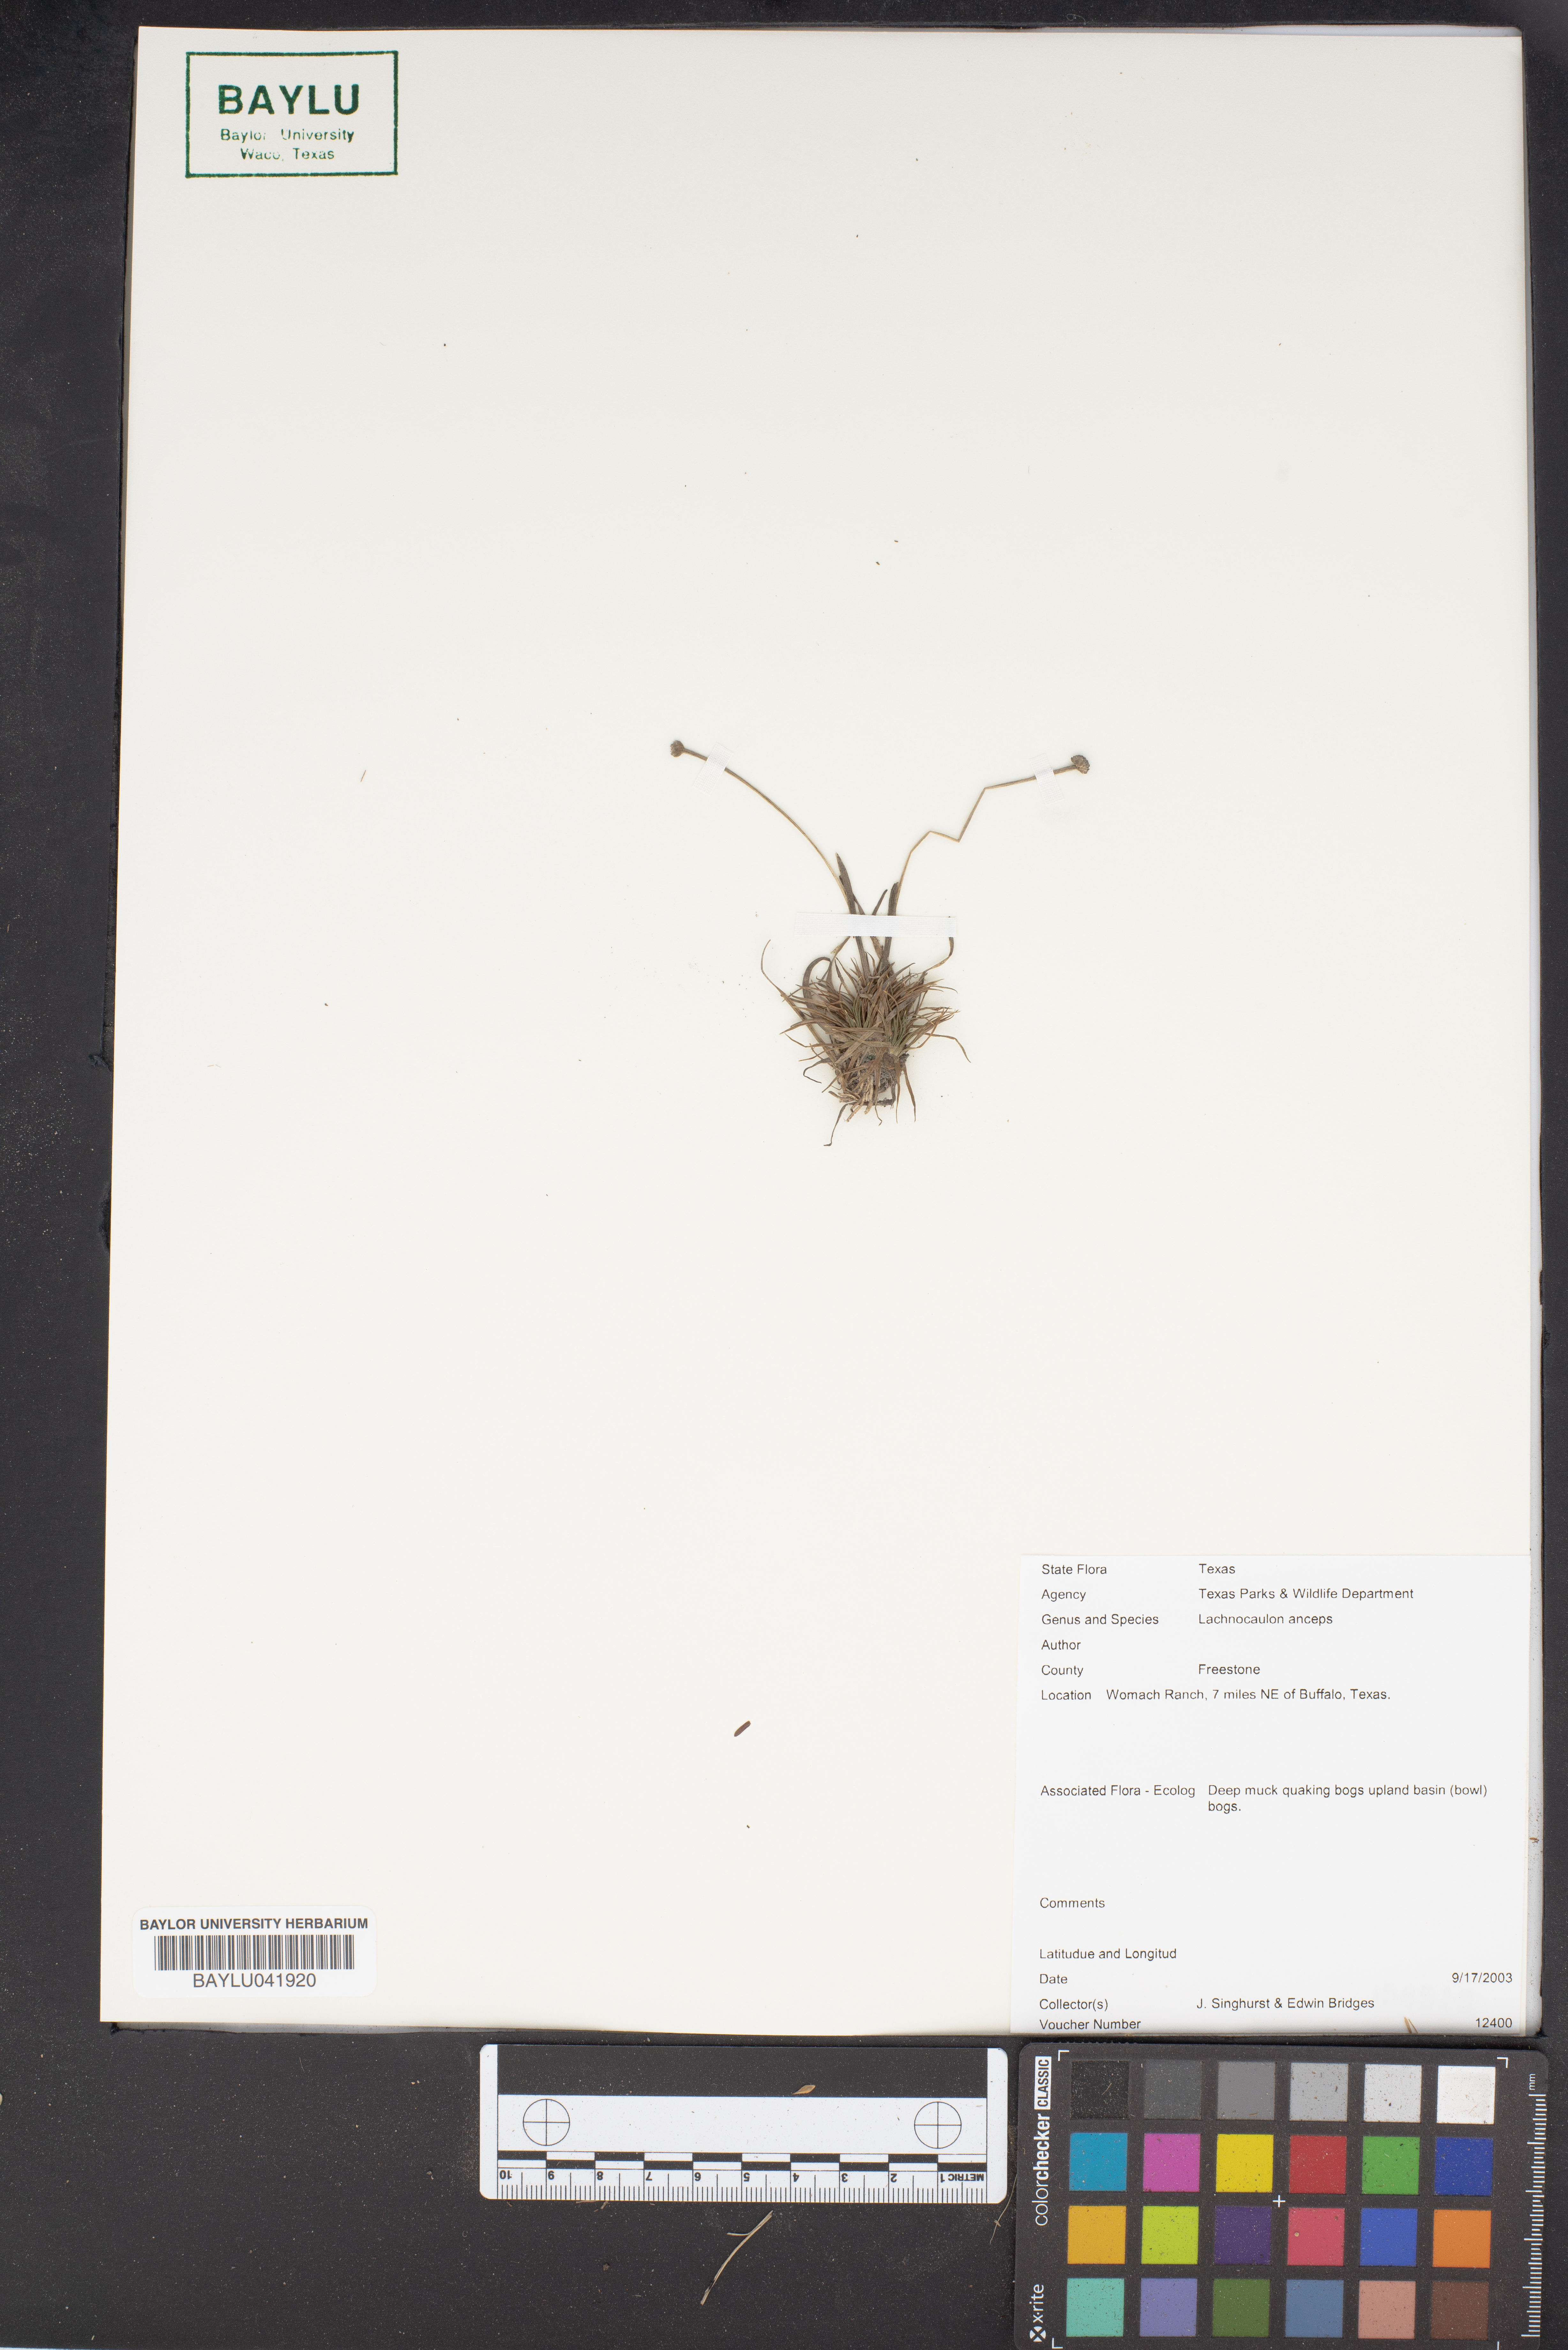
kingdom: Plantae
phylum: Tracheophyta
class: Liliopsida
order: Poales
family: Eriocaulaceae
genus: Paepalanthus
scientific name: Paepalanthus anceps
